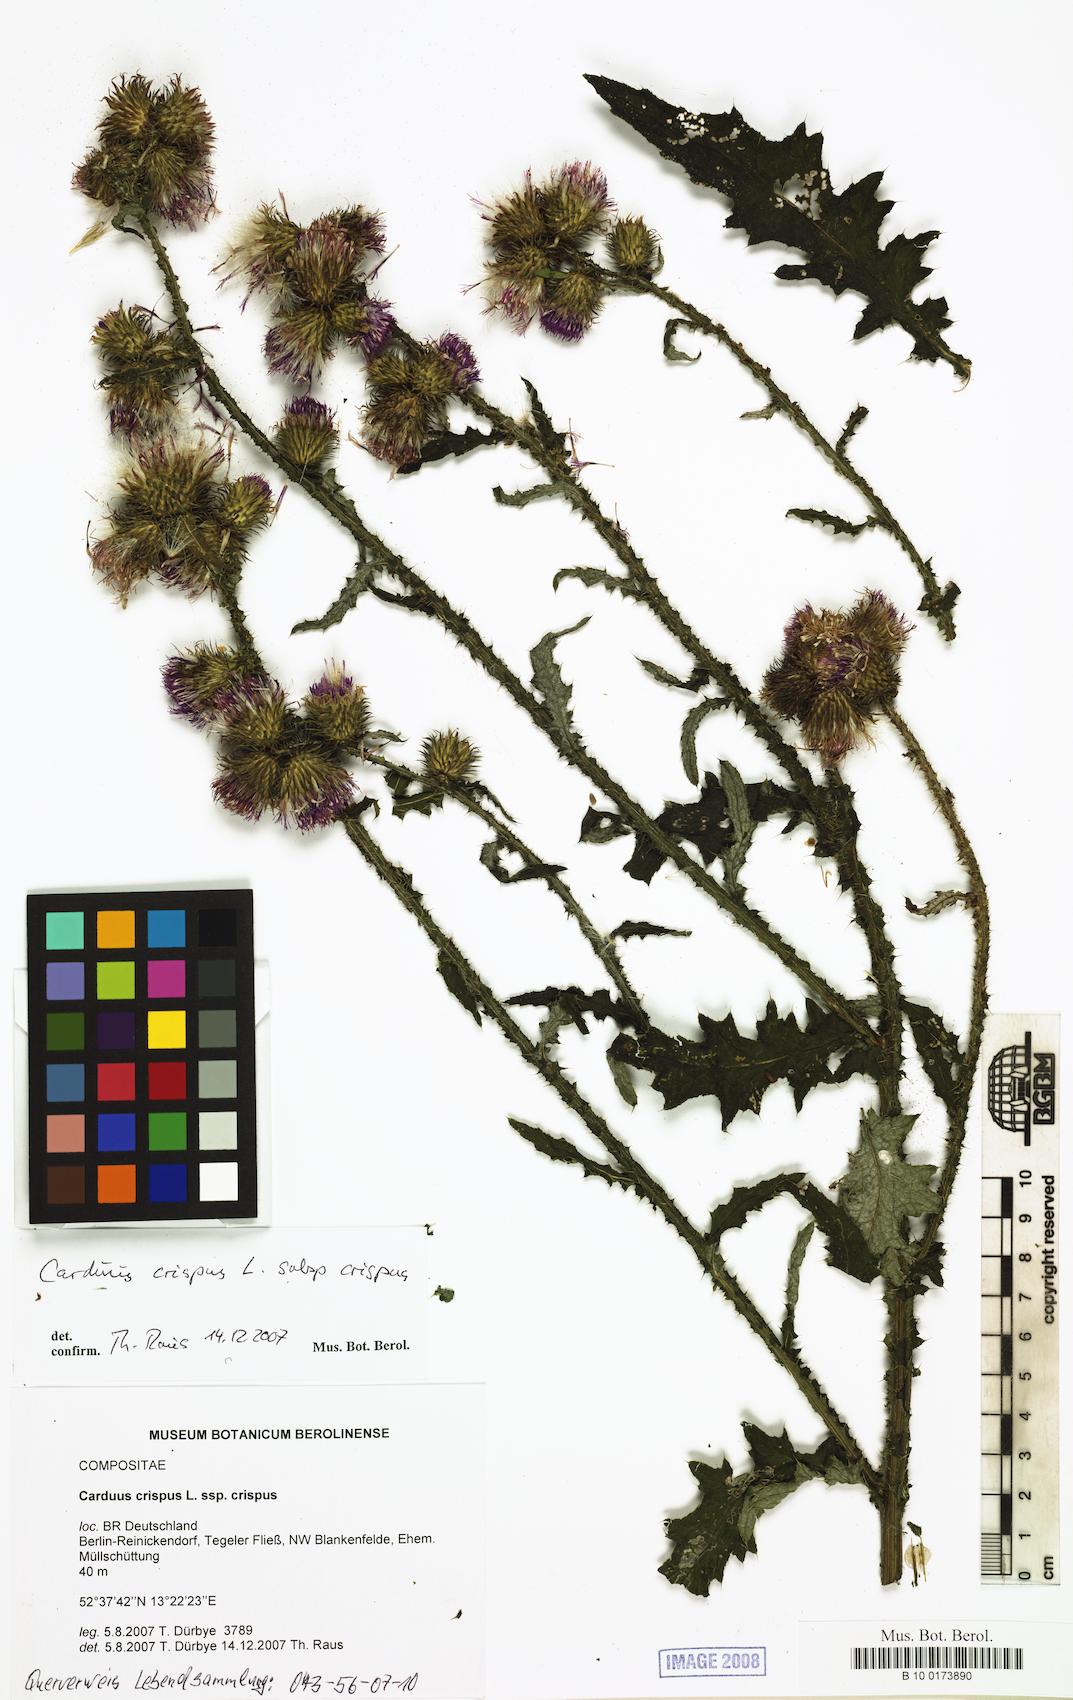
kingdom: Plantae
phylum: Tracheophyta
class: Magnoliopsida
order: Asterales
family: Asteraceae
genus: Carduus
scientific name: Carduus crispus
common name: Welted thistle
